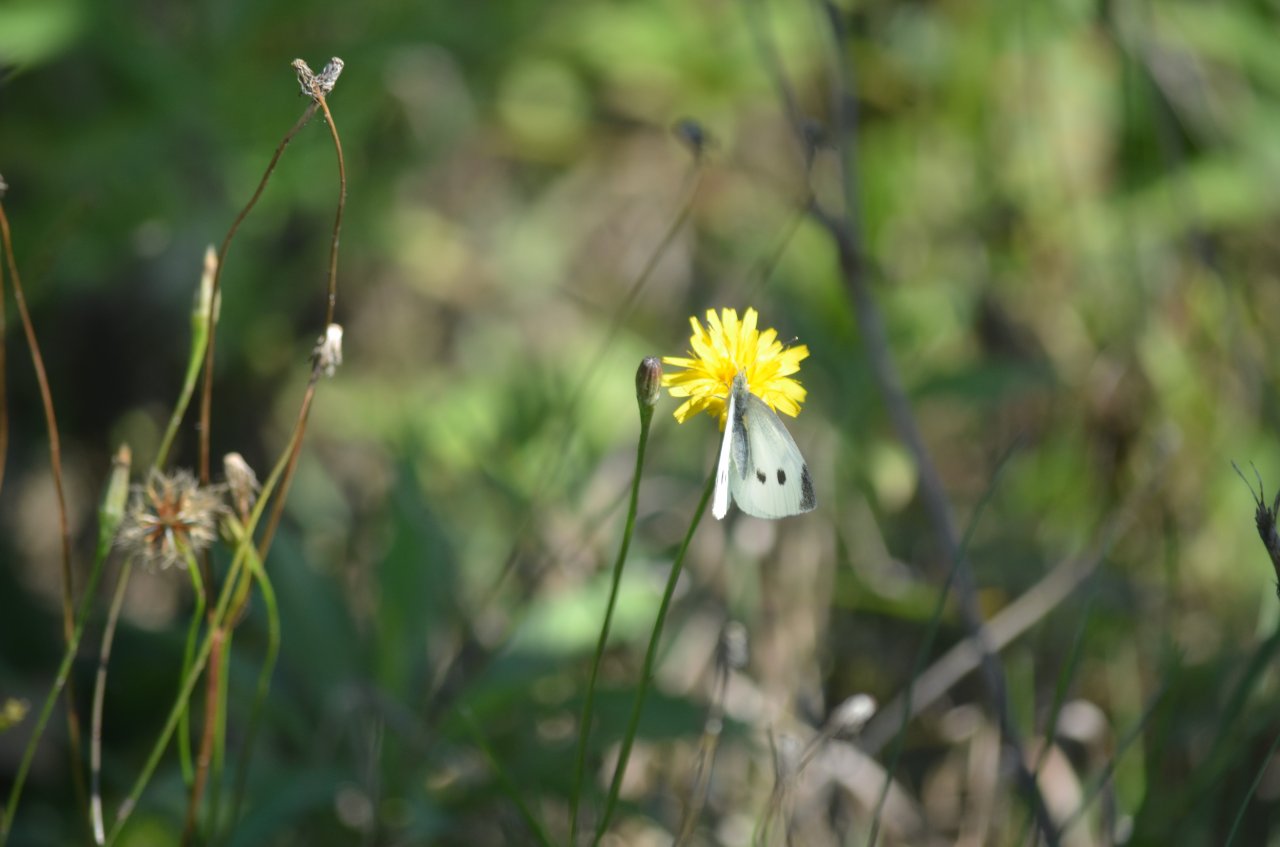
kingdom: Animalia
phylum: Arthropoda
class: Insecta
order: Lepidoptera
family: Pieridae
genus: Pieris
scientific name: Pieris rapae
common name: Cabbage White
